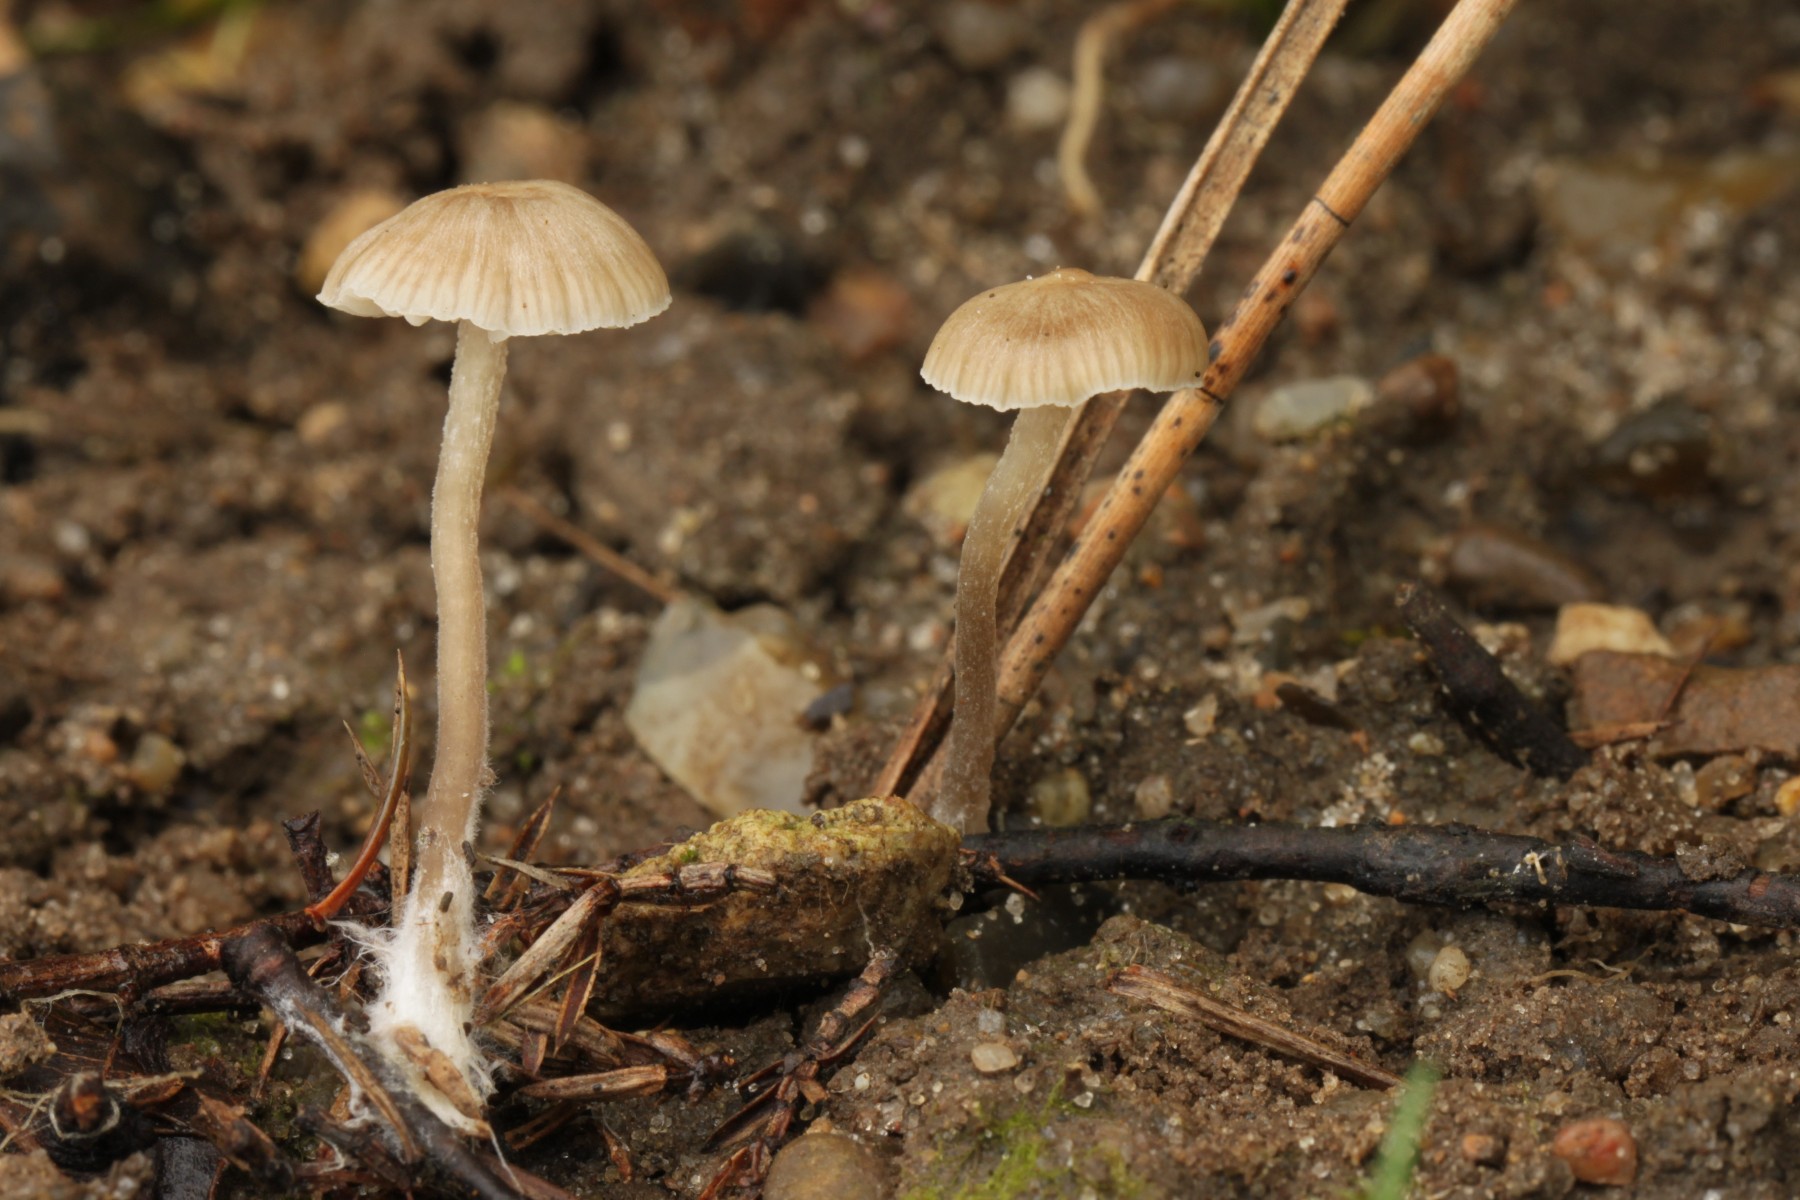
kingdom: Fungi
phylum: Basidiomycota
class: Agaricomycetes
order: Agaricales
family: Tricholomataceae
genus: Gamundia
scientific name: Gamundia striatula
